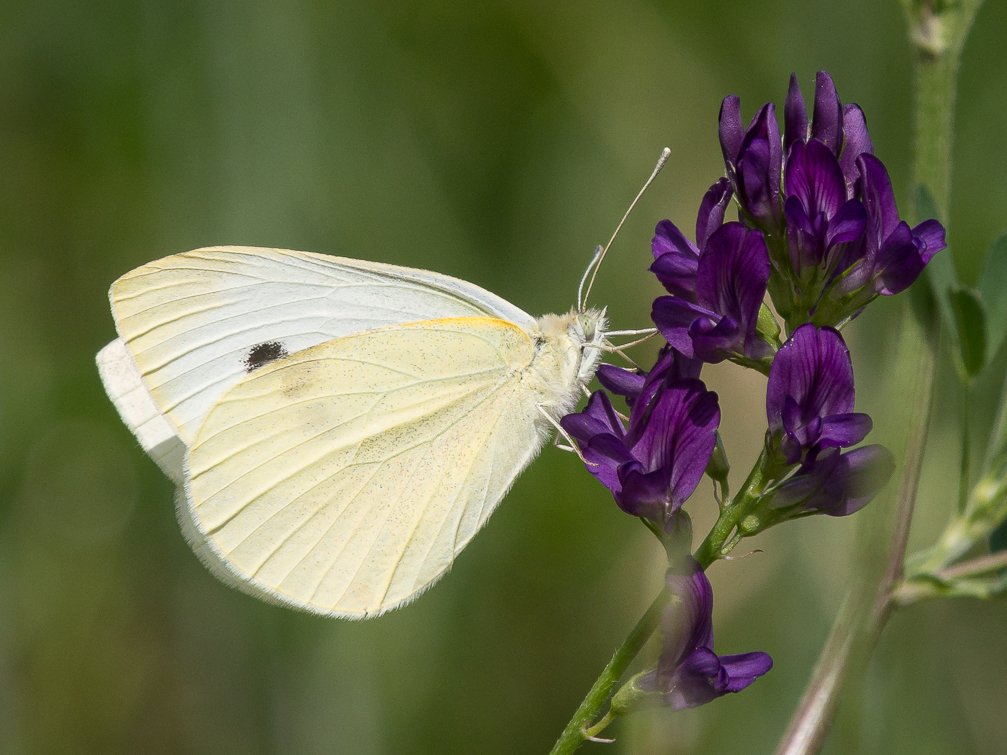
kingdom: Animalia
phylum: Arthropoda
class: Insecta
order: Lepidoptera
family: Pieridae
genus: Pieris
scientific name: Pieris rapae
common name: Cabbage White
